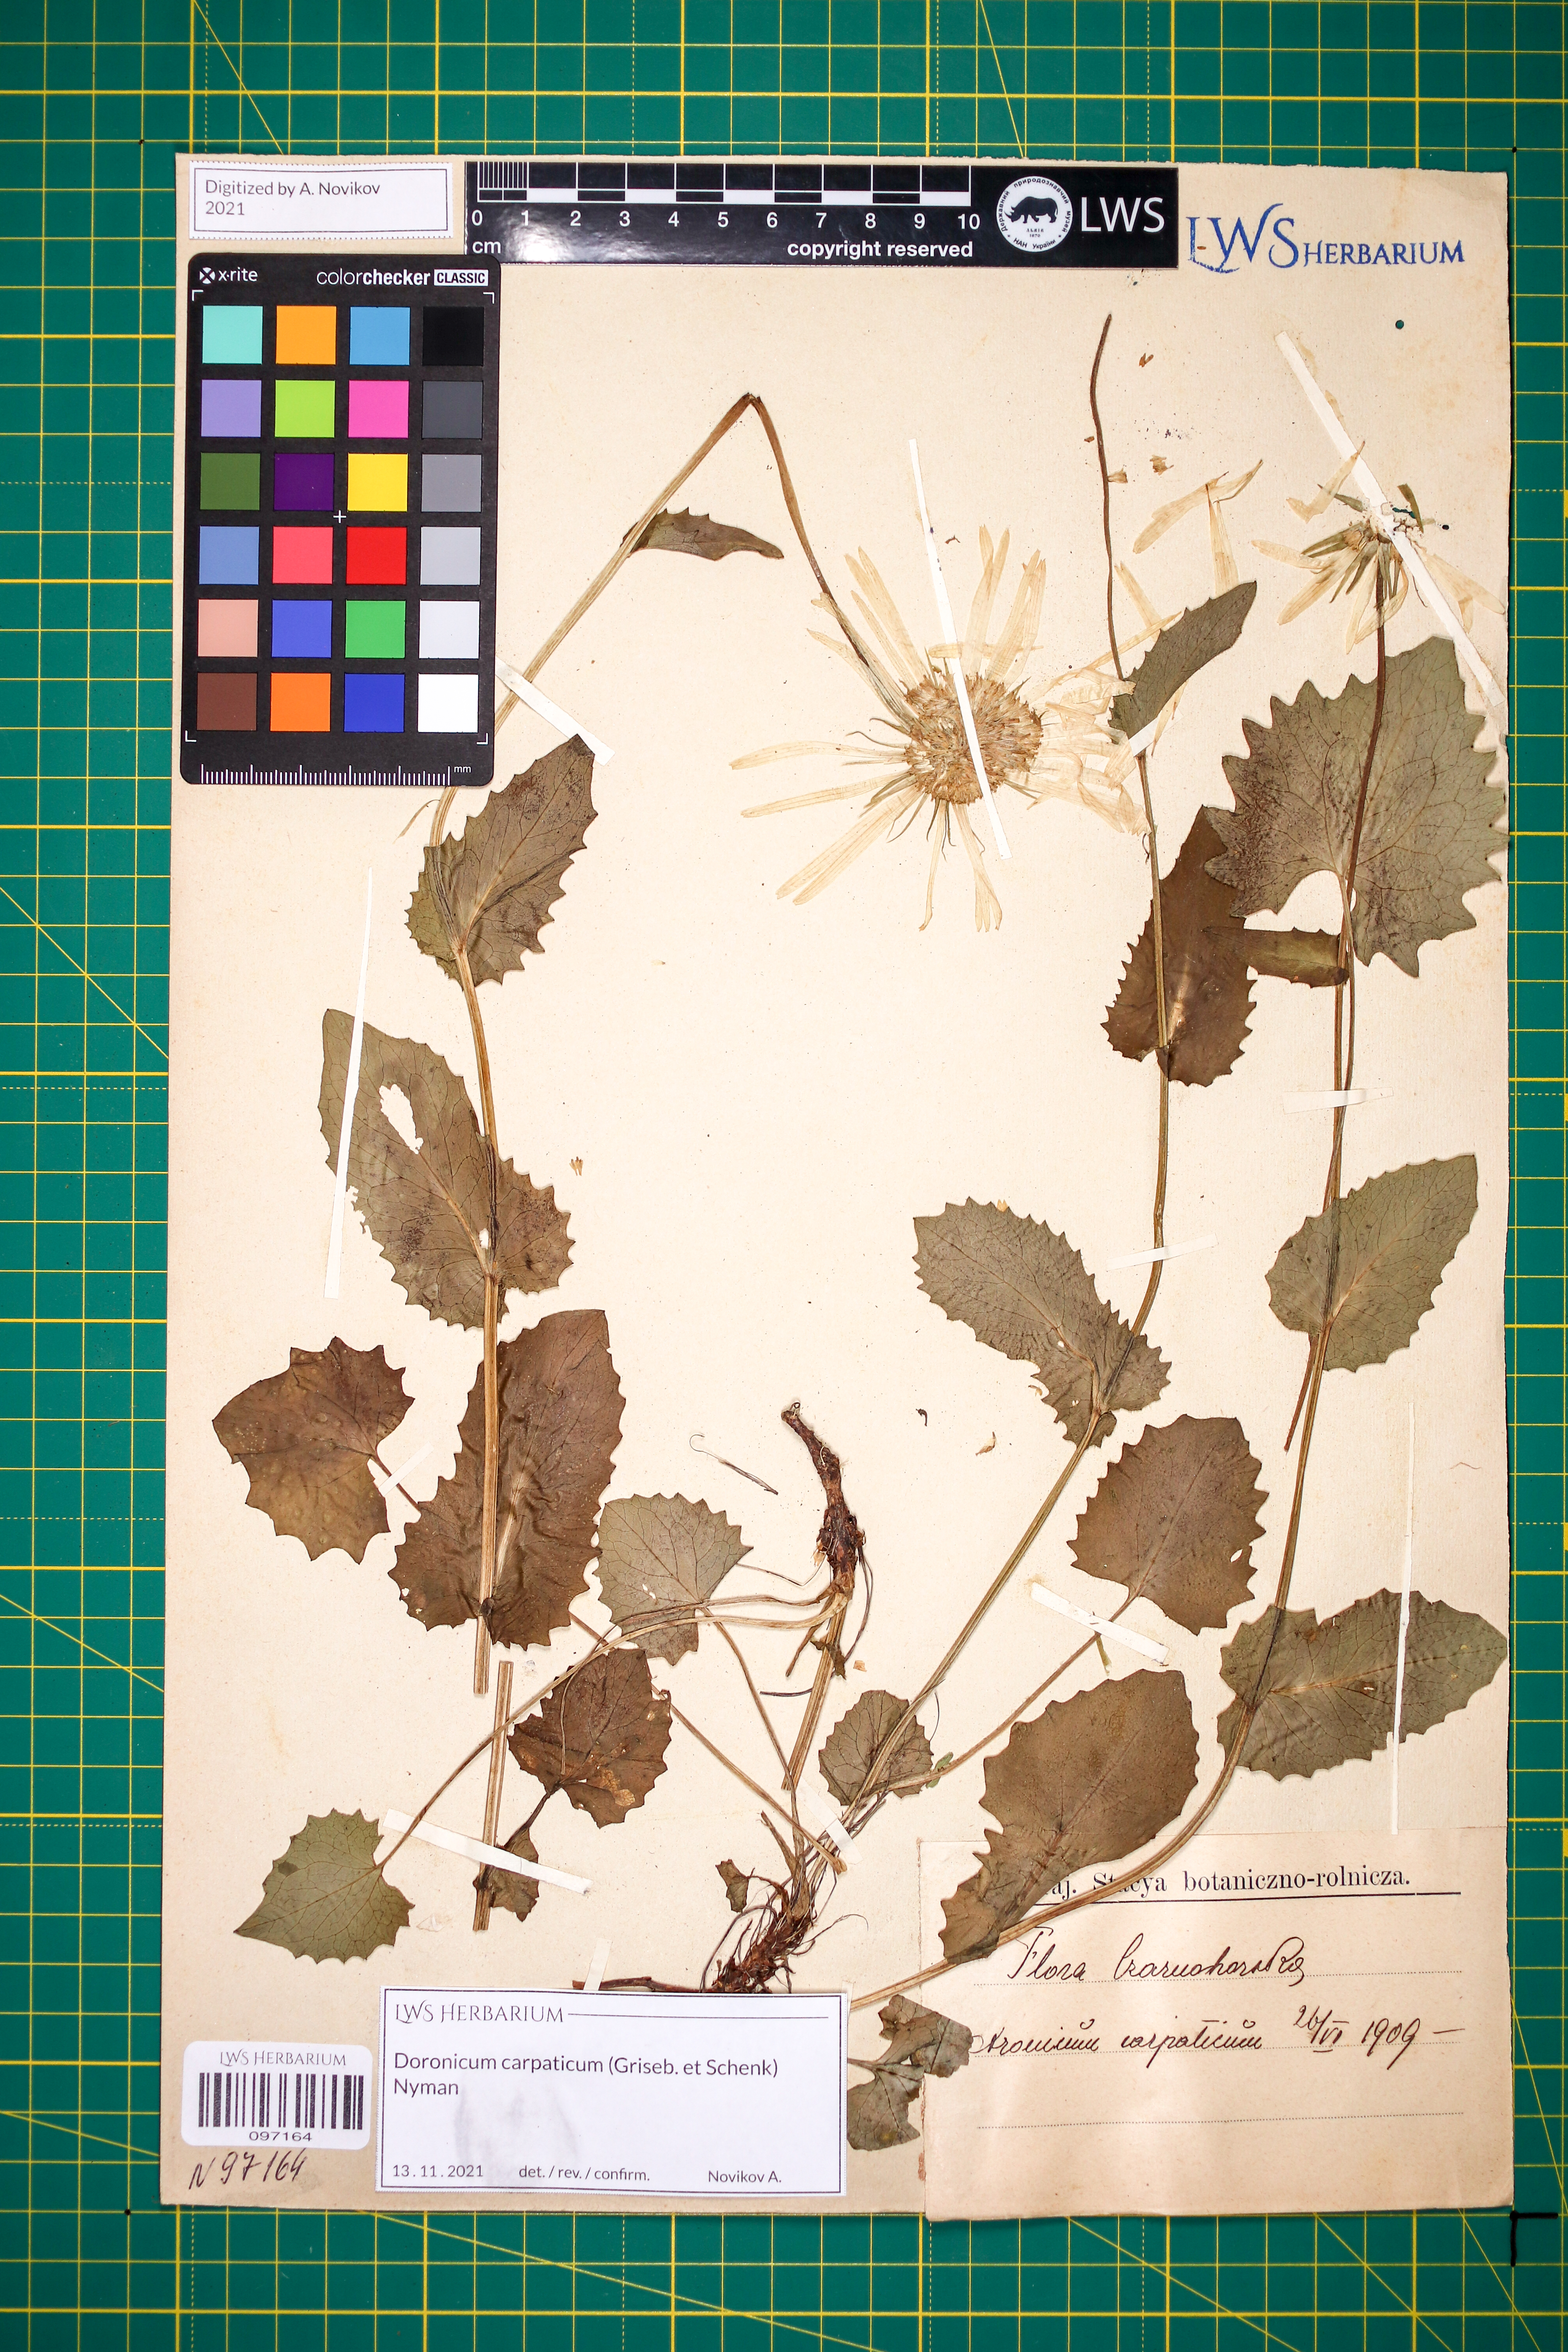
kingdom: Plantae
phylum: Tracheophyta
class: Magnoliopsida
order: Asterales
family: Asteraceae
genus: Doronicum
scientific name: Doronicum carpaticum
